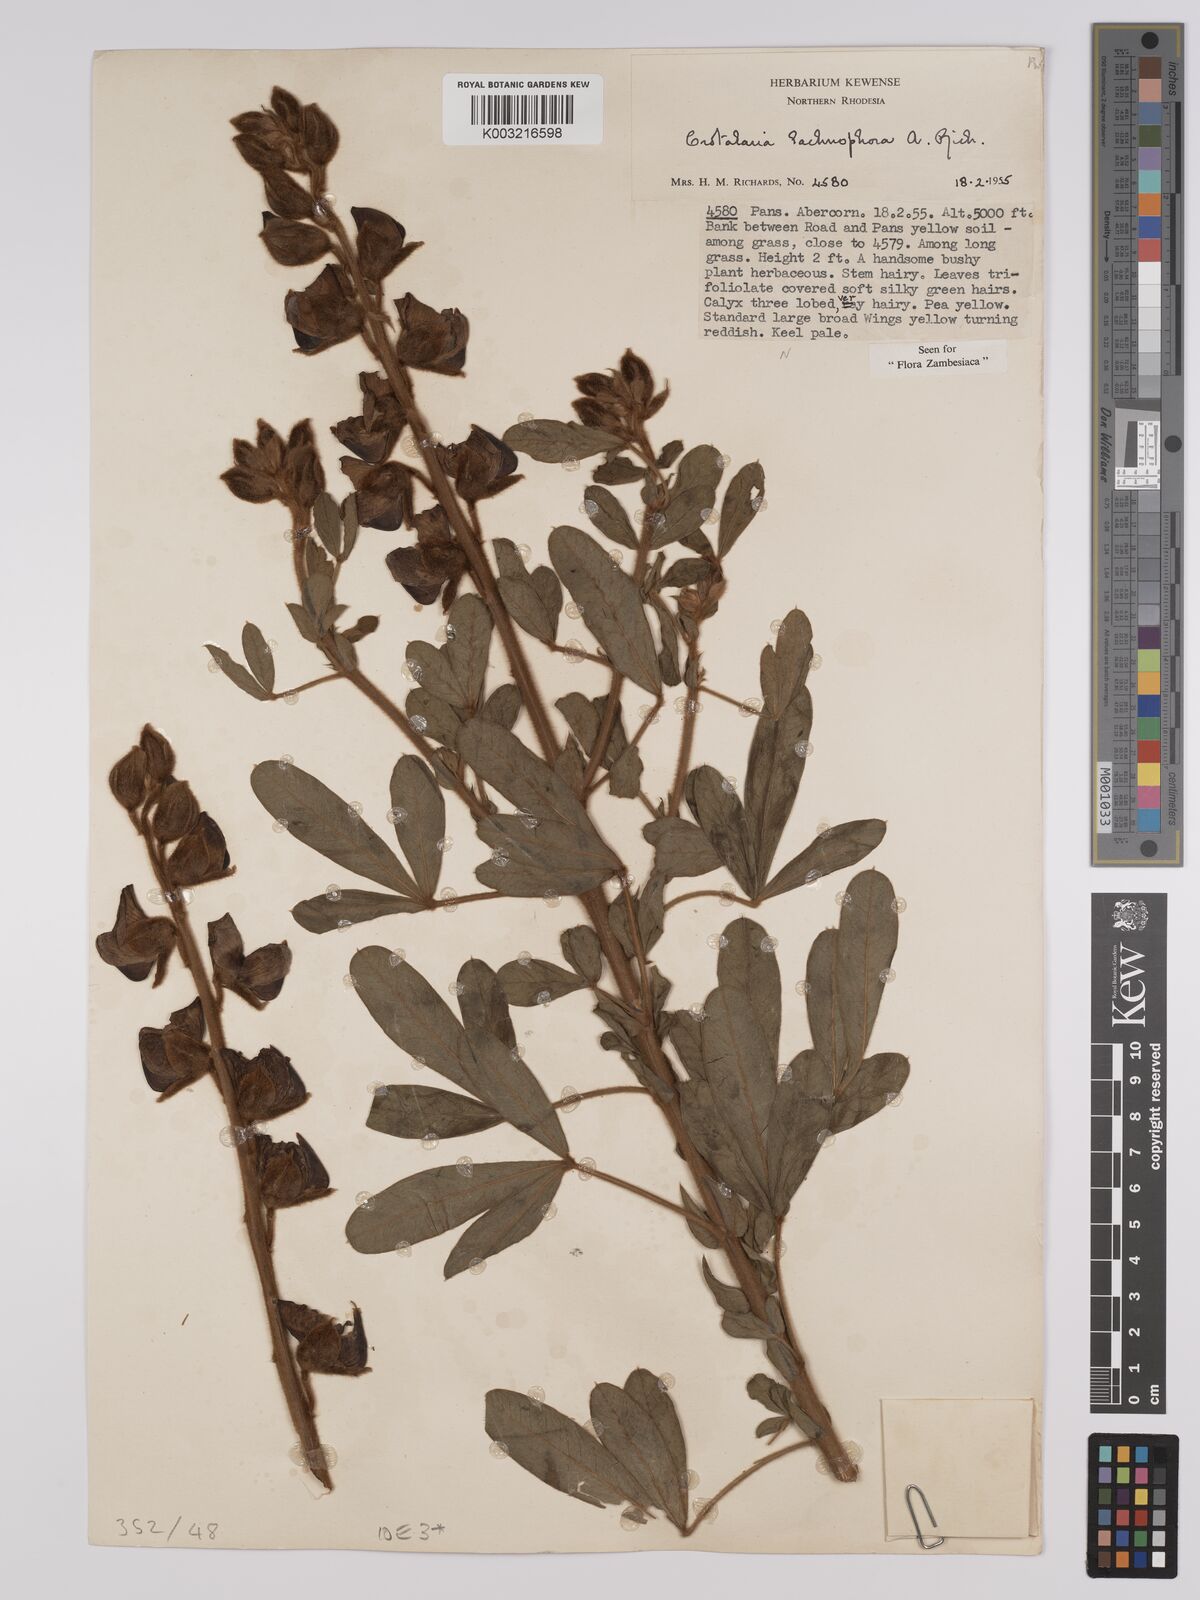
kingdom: Plantae
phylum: Tracheophyta
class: Magnoliopsida
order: Fabales
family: Fabaceae
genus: Crotalaria
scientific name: Crotalaria lachnophora
